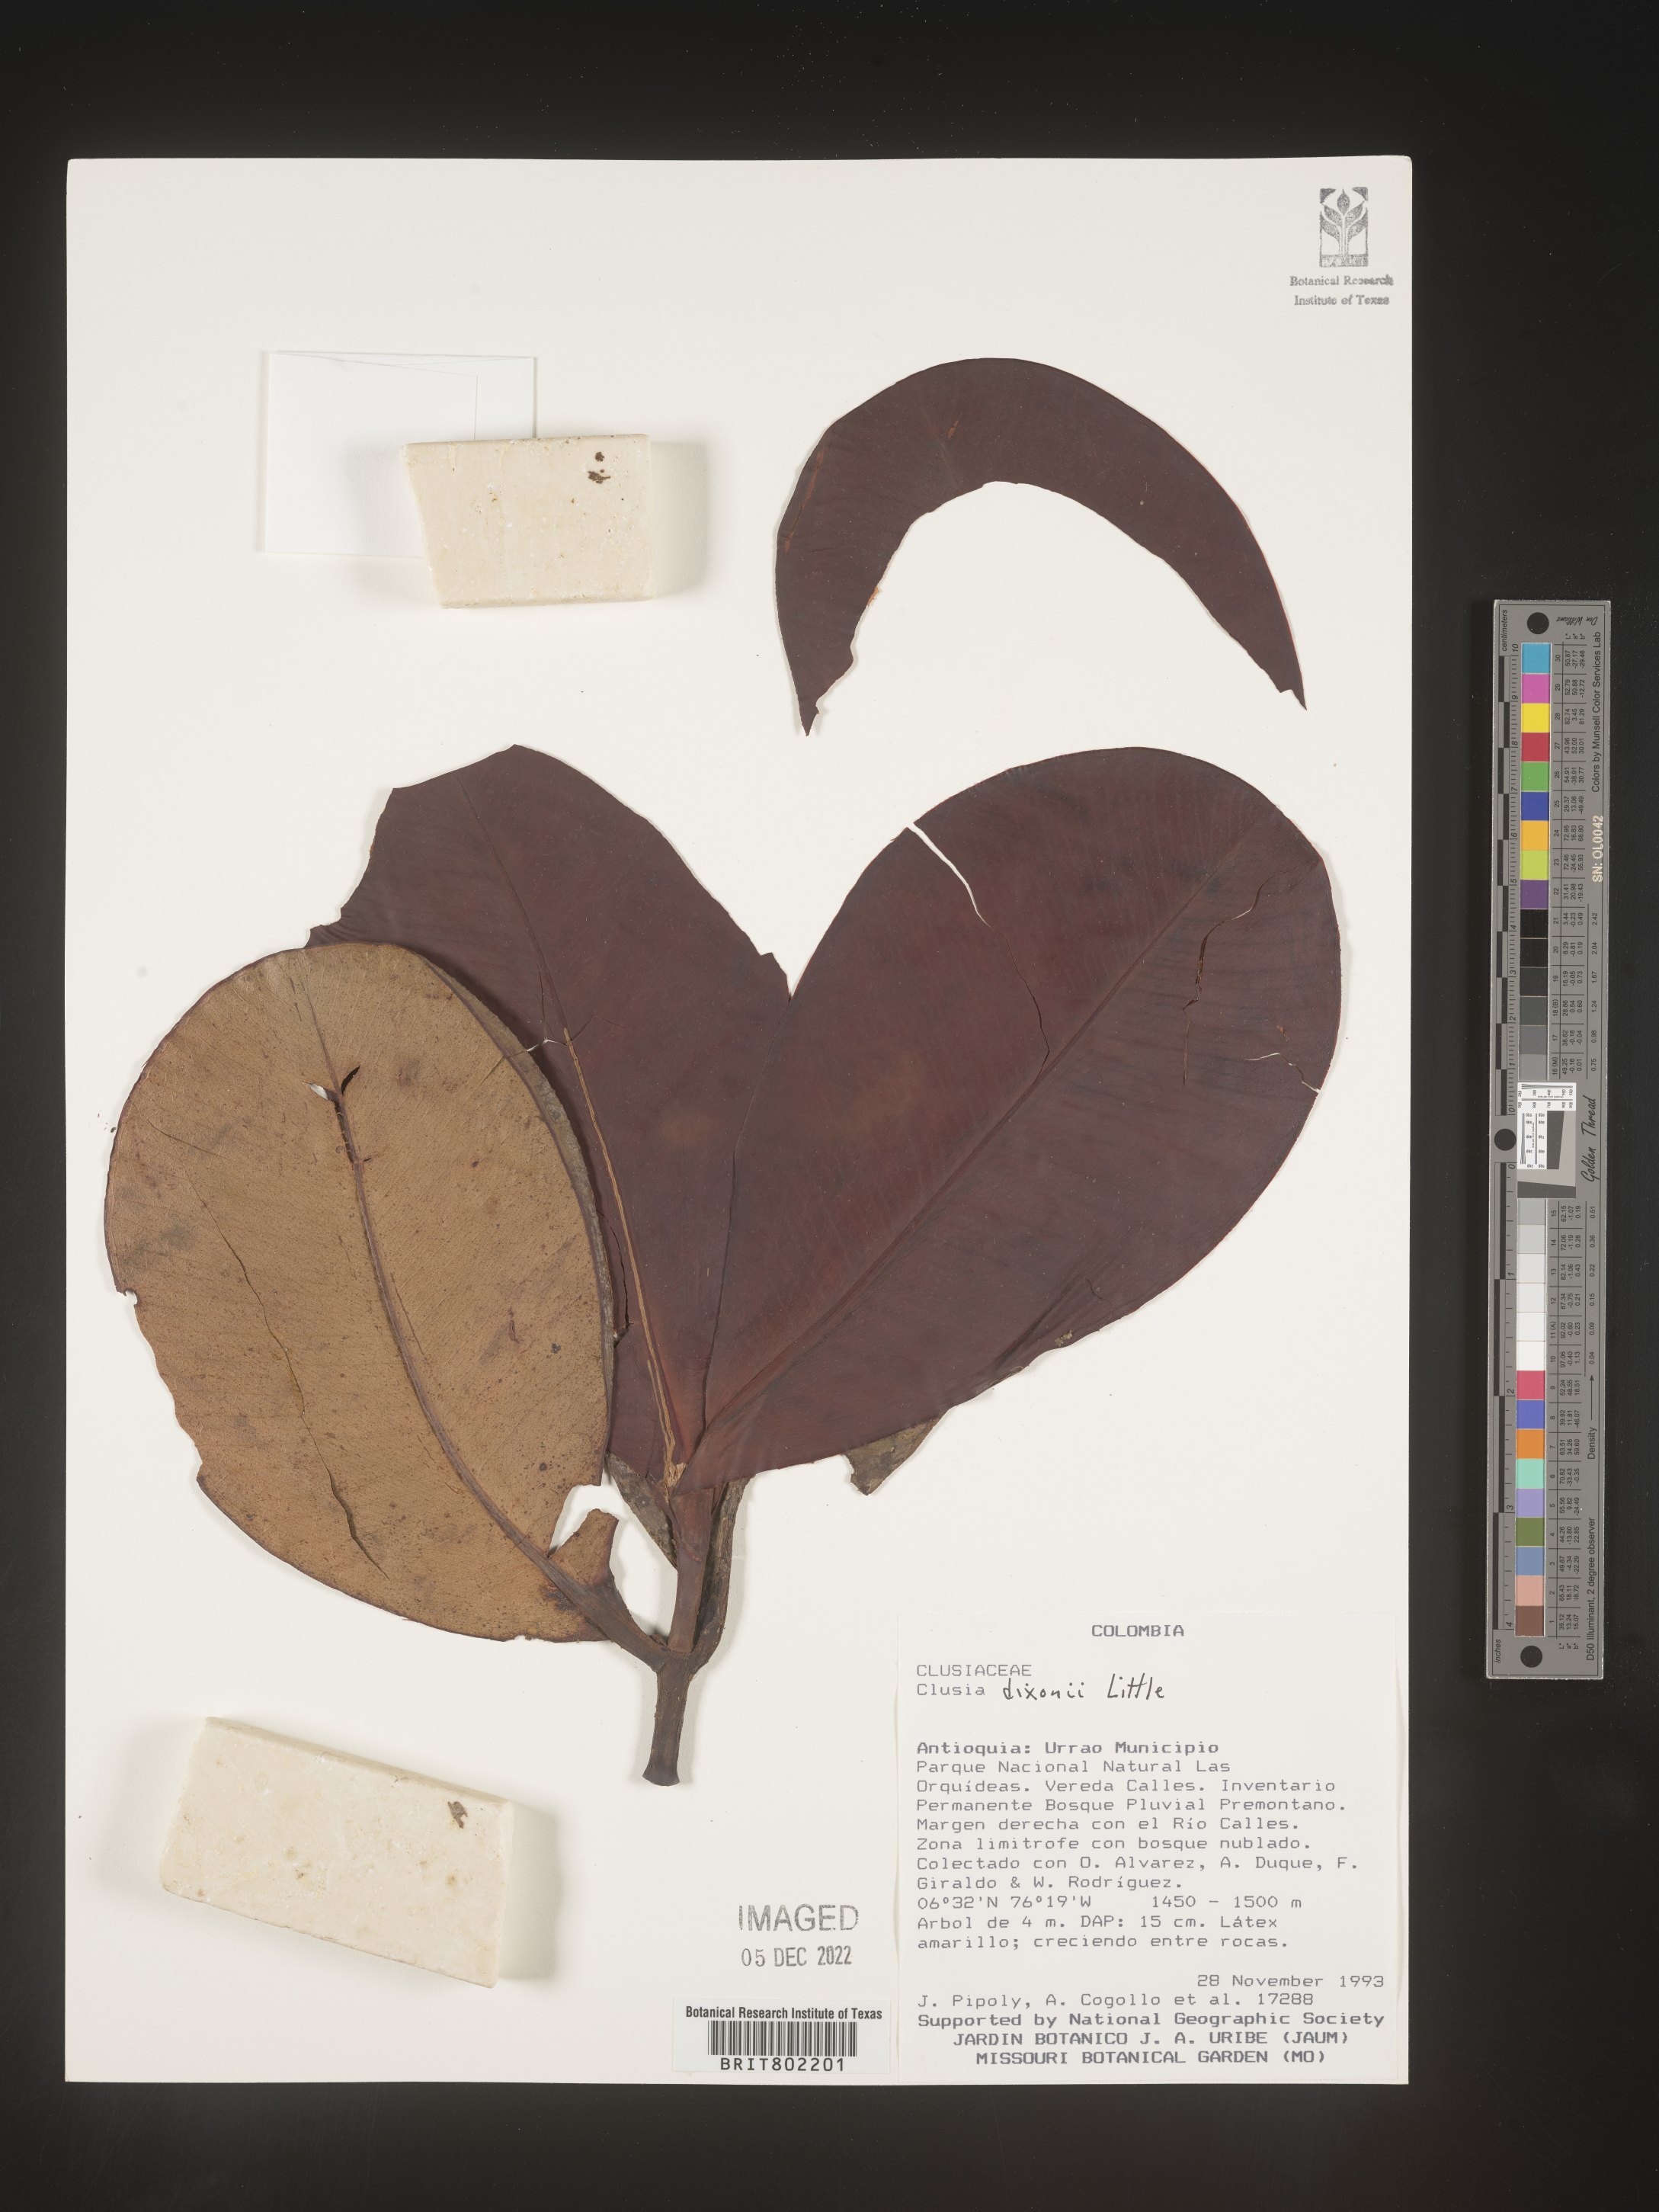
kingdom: Plantae
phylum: Tracheophyta
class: Magnoliopsida
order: Malpighiales
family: Clusiaceae
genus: Clusia
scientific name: Clusia
